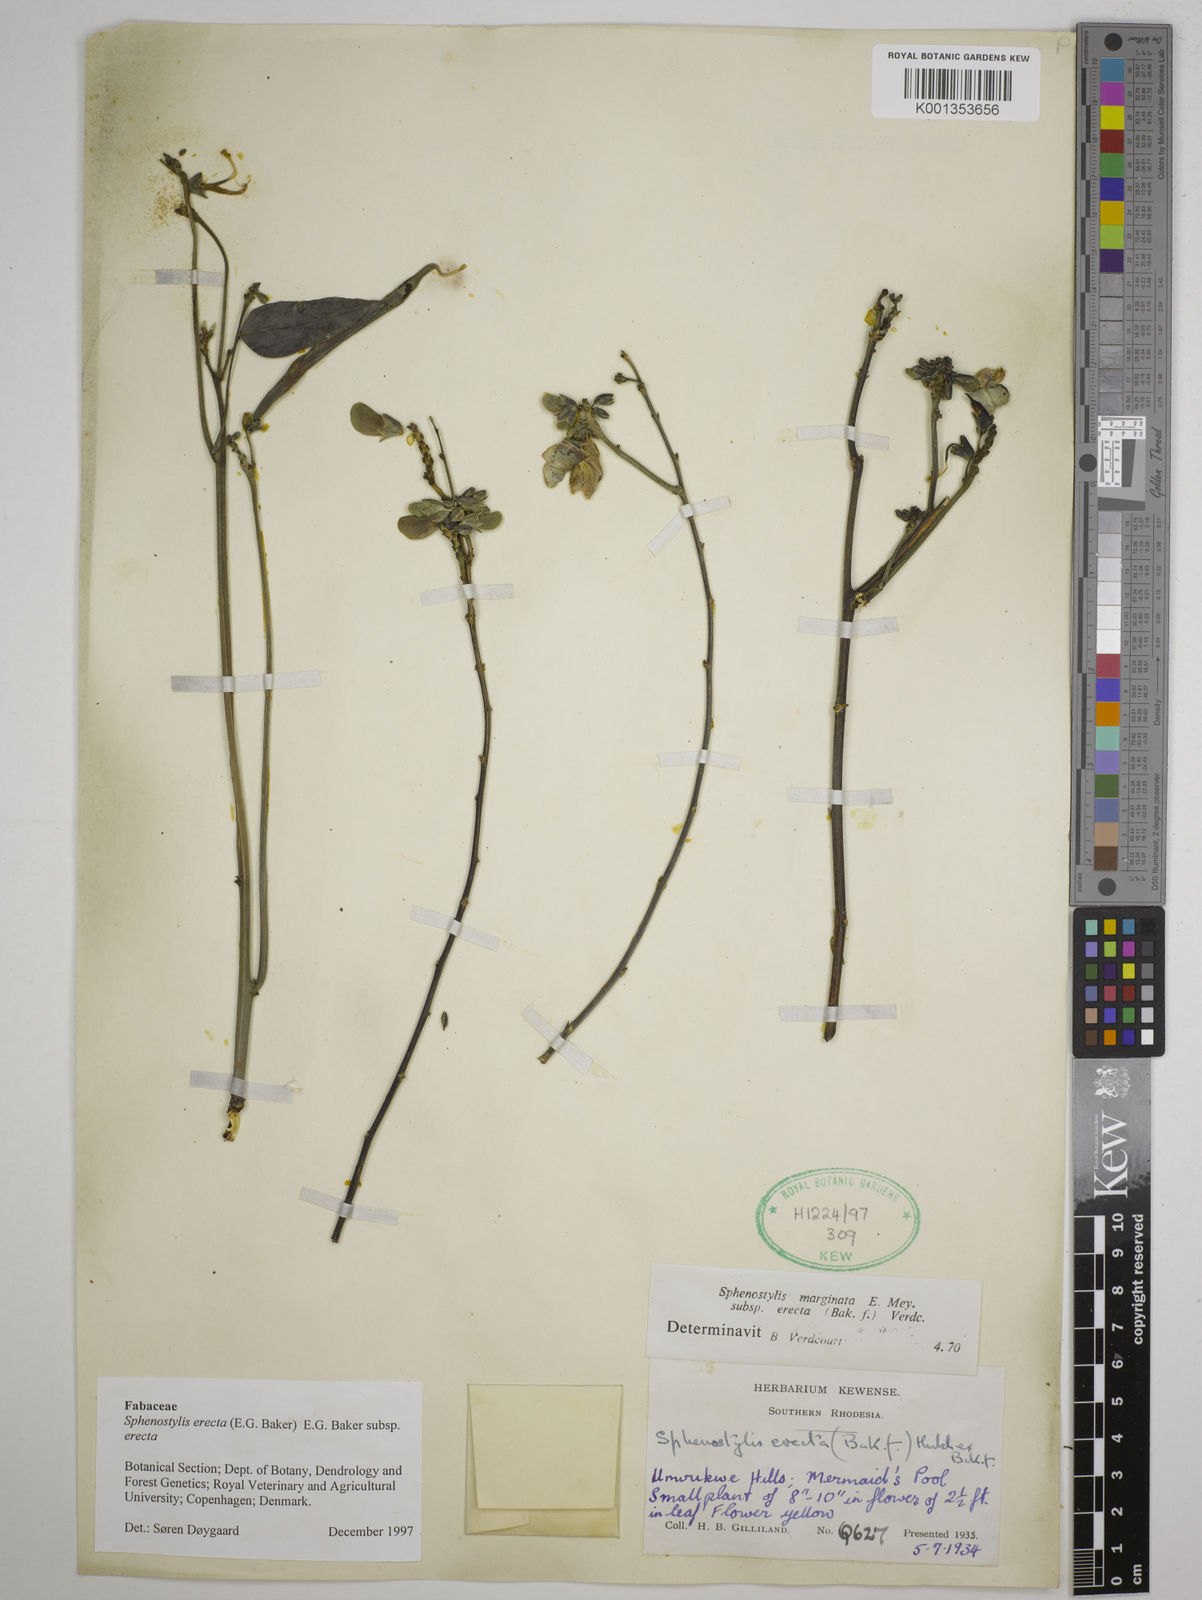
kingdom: Plantae
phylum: Tracheophyta
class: Magnoliopsida
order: Fabales
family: Fabaceae
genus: Sphenostylis
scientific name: Sphenostylis erecta
